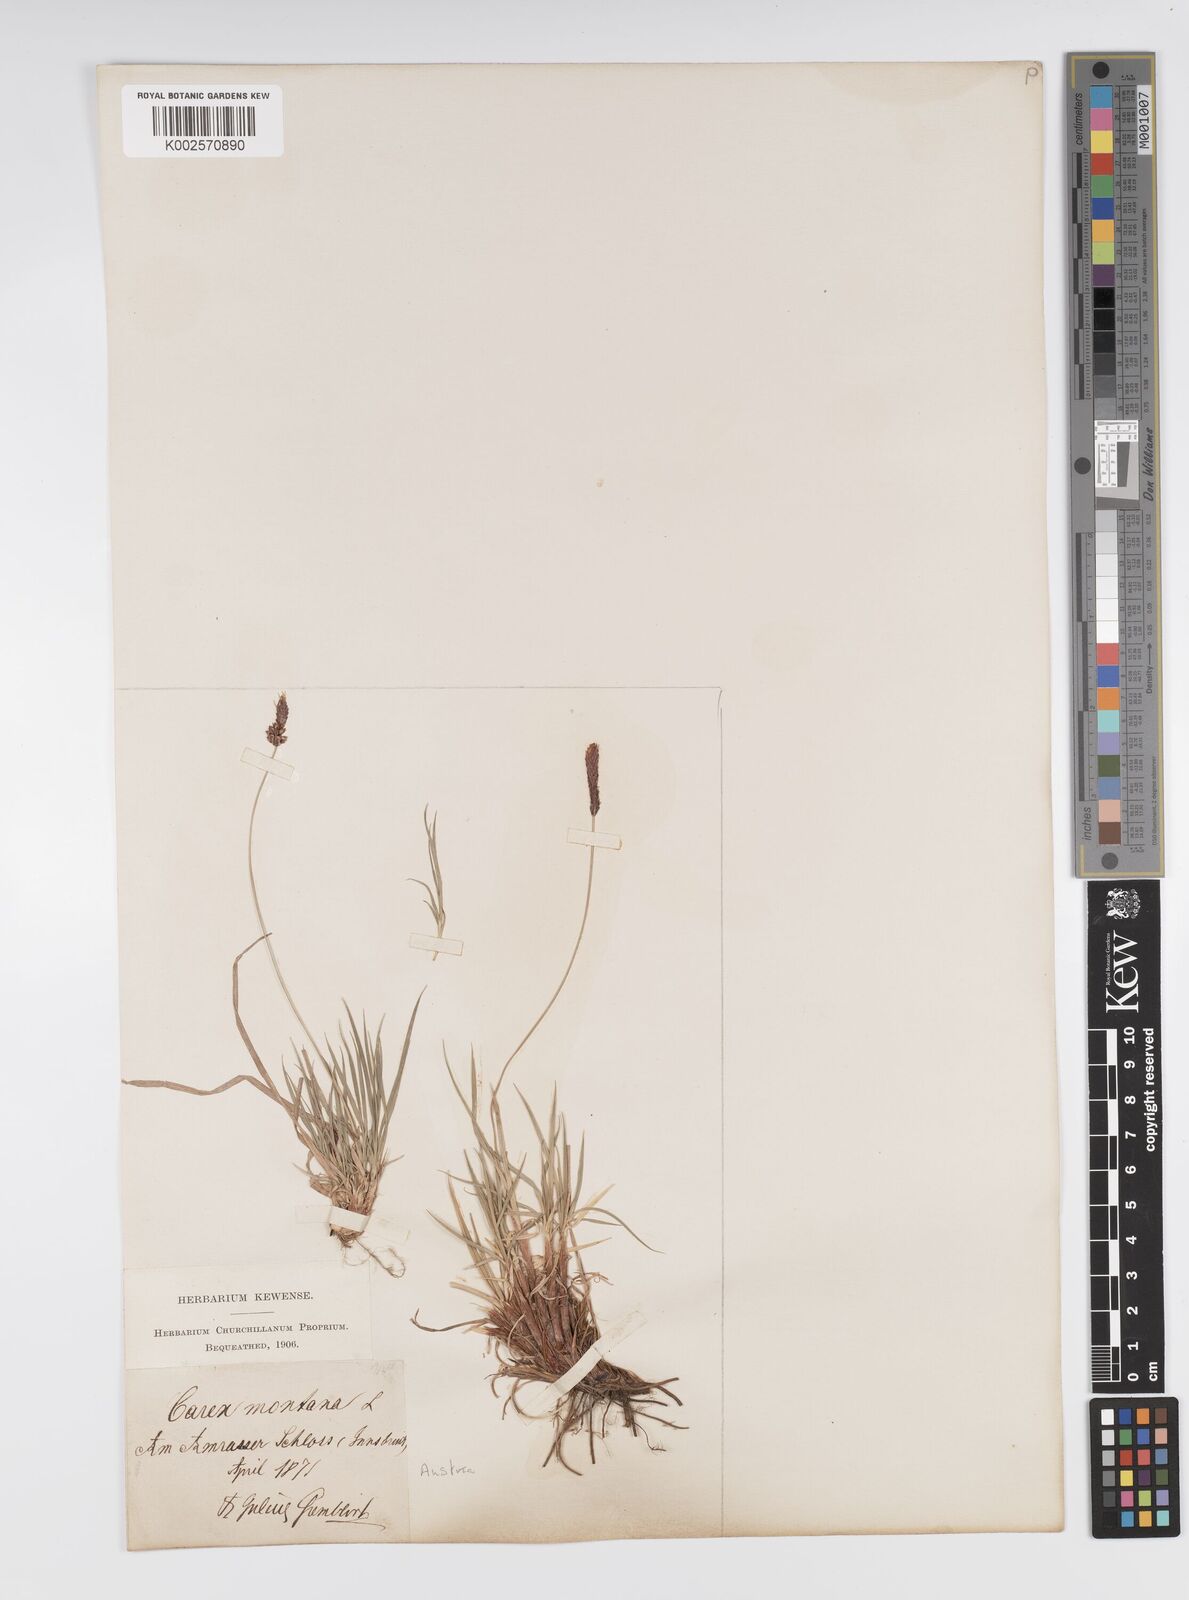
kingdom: Plantae
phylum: Tracheophyta
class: Liliopsida
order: Poales
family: Cyperaceae
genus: Carex
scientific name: Carex montana
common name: Soft-leaved sedge
